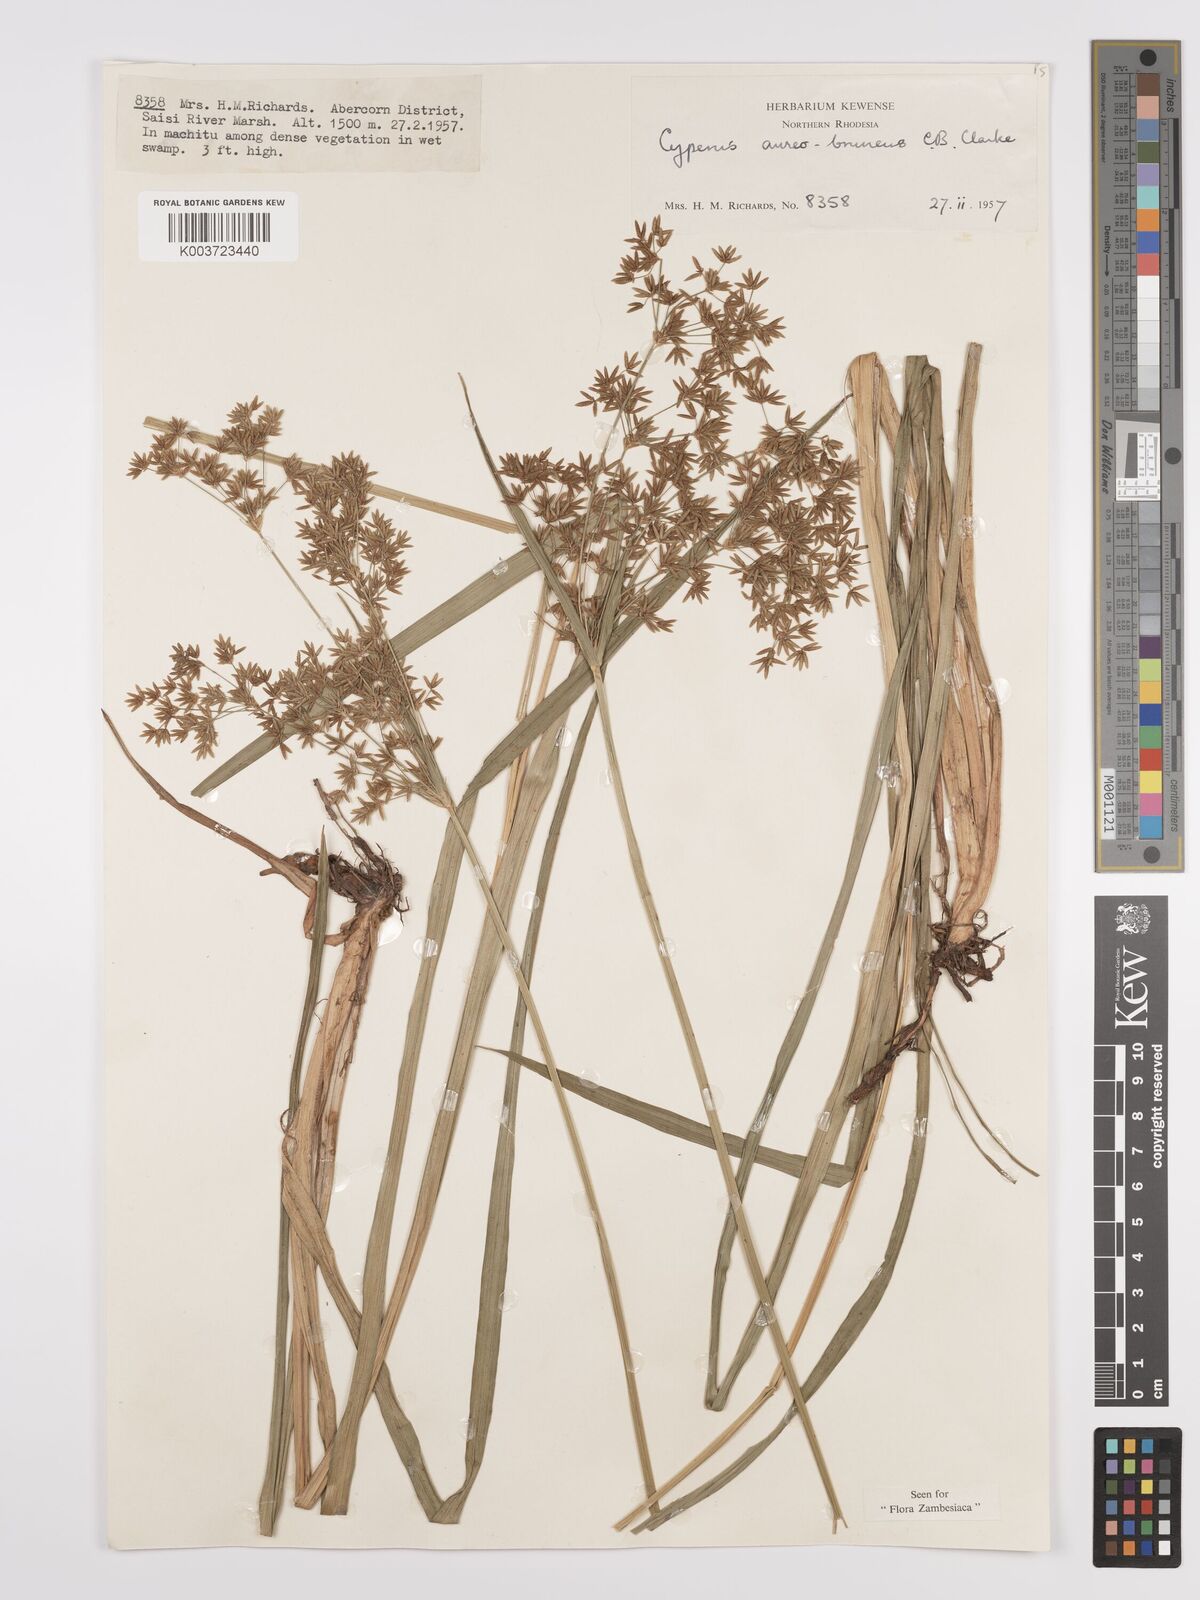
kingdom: Plantae
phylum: Tracheophyta
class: Liliopsida
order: Poales
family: Cyperaceae
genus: Cyperus
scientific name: Cyperus aureobrunneus
